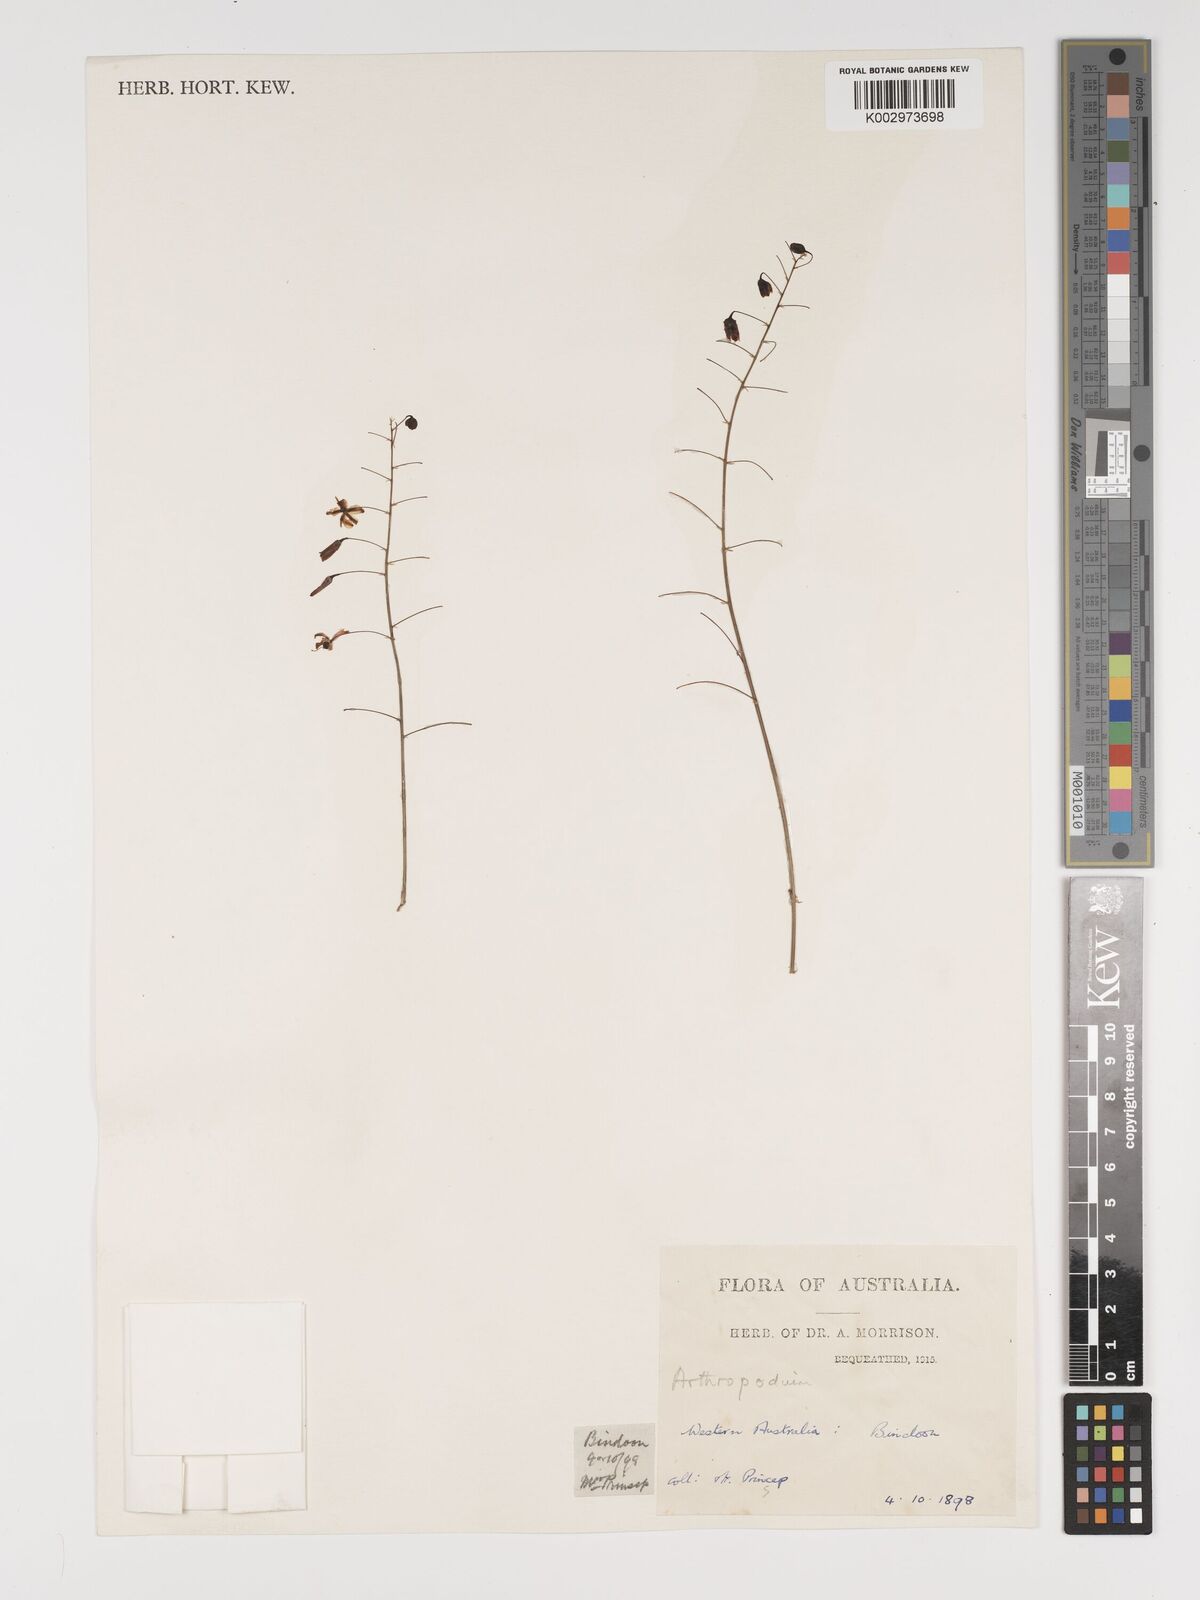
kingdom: Plantae
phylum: Tracheophyta
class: Liliopsida
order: Asparagales
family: Asparagaceae
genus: Arthropodium
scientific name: Arthropodium dyeri
